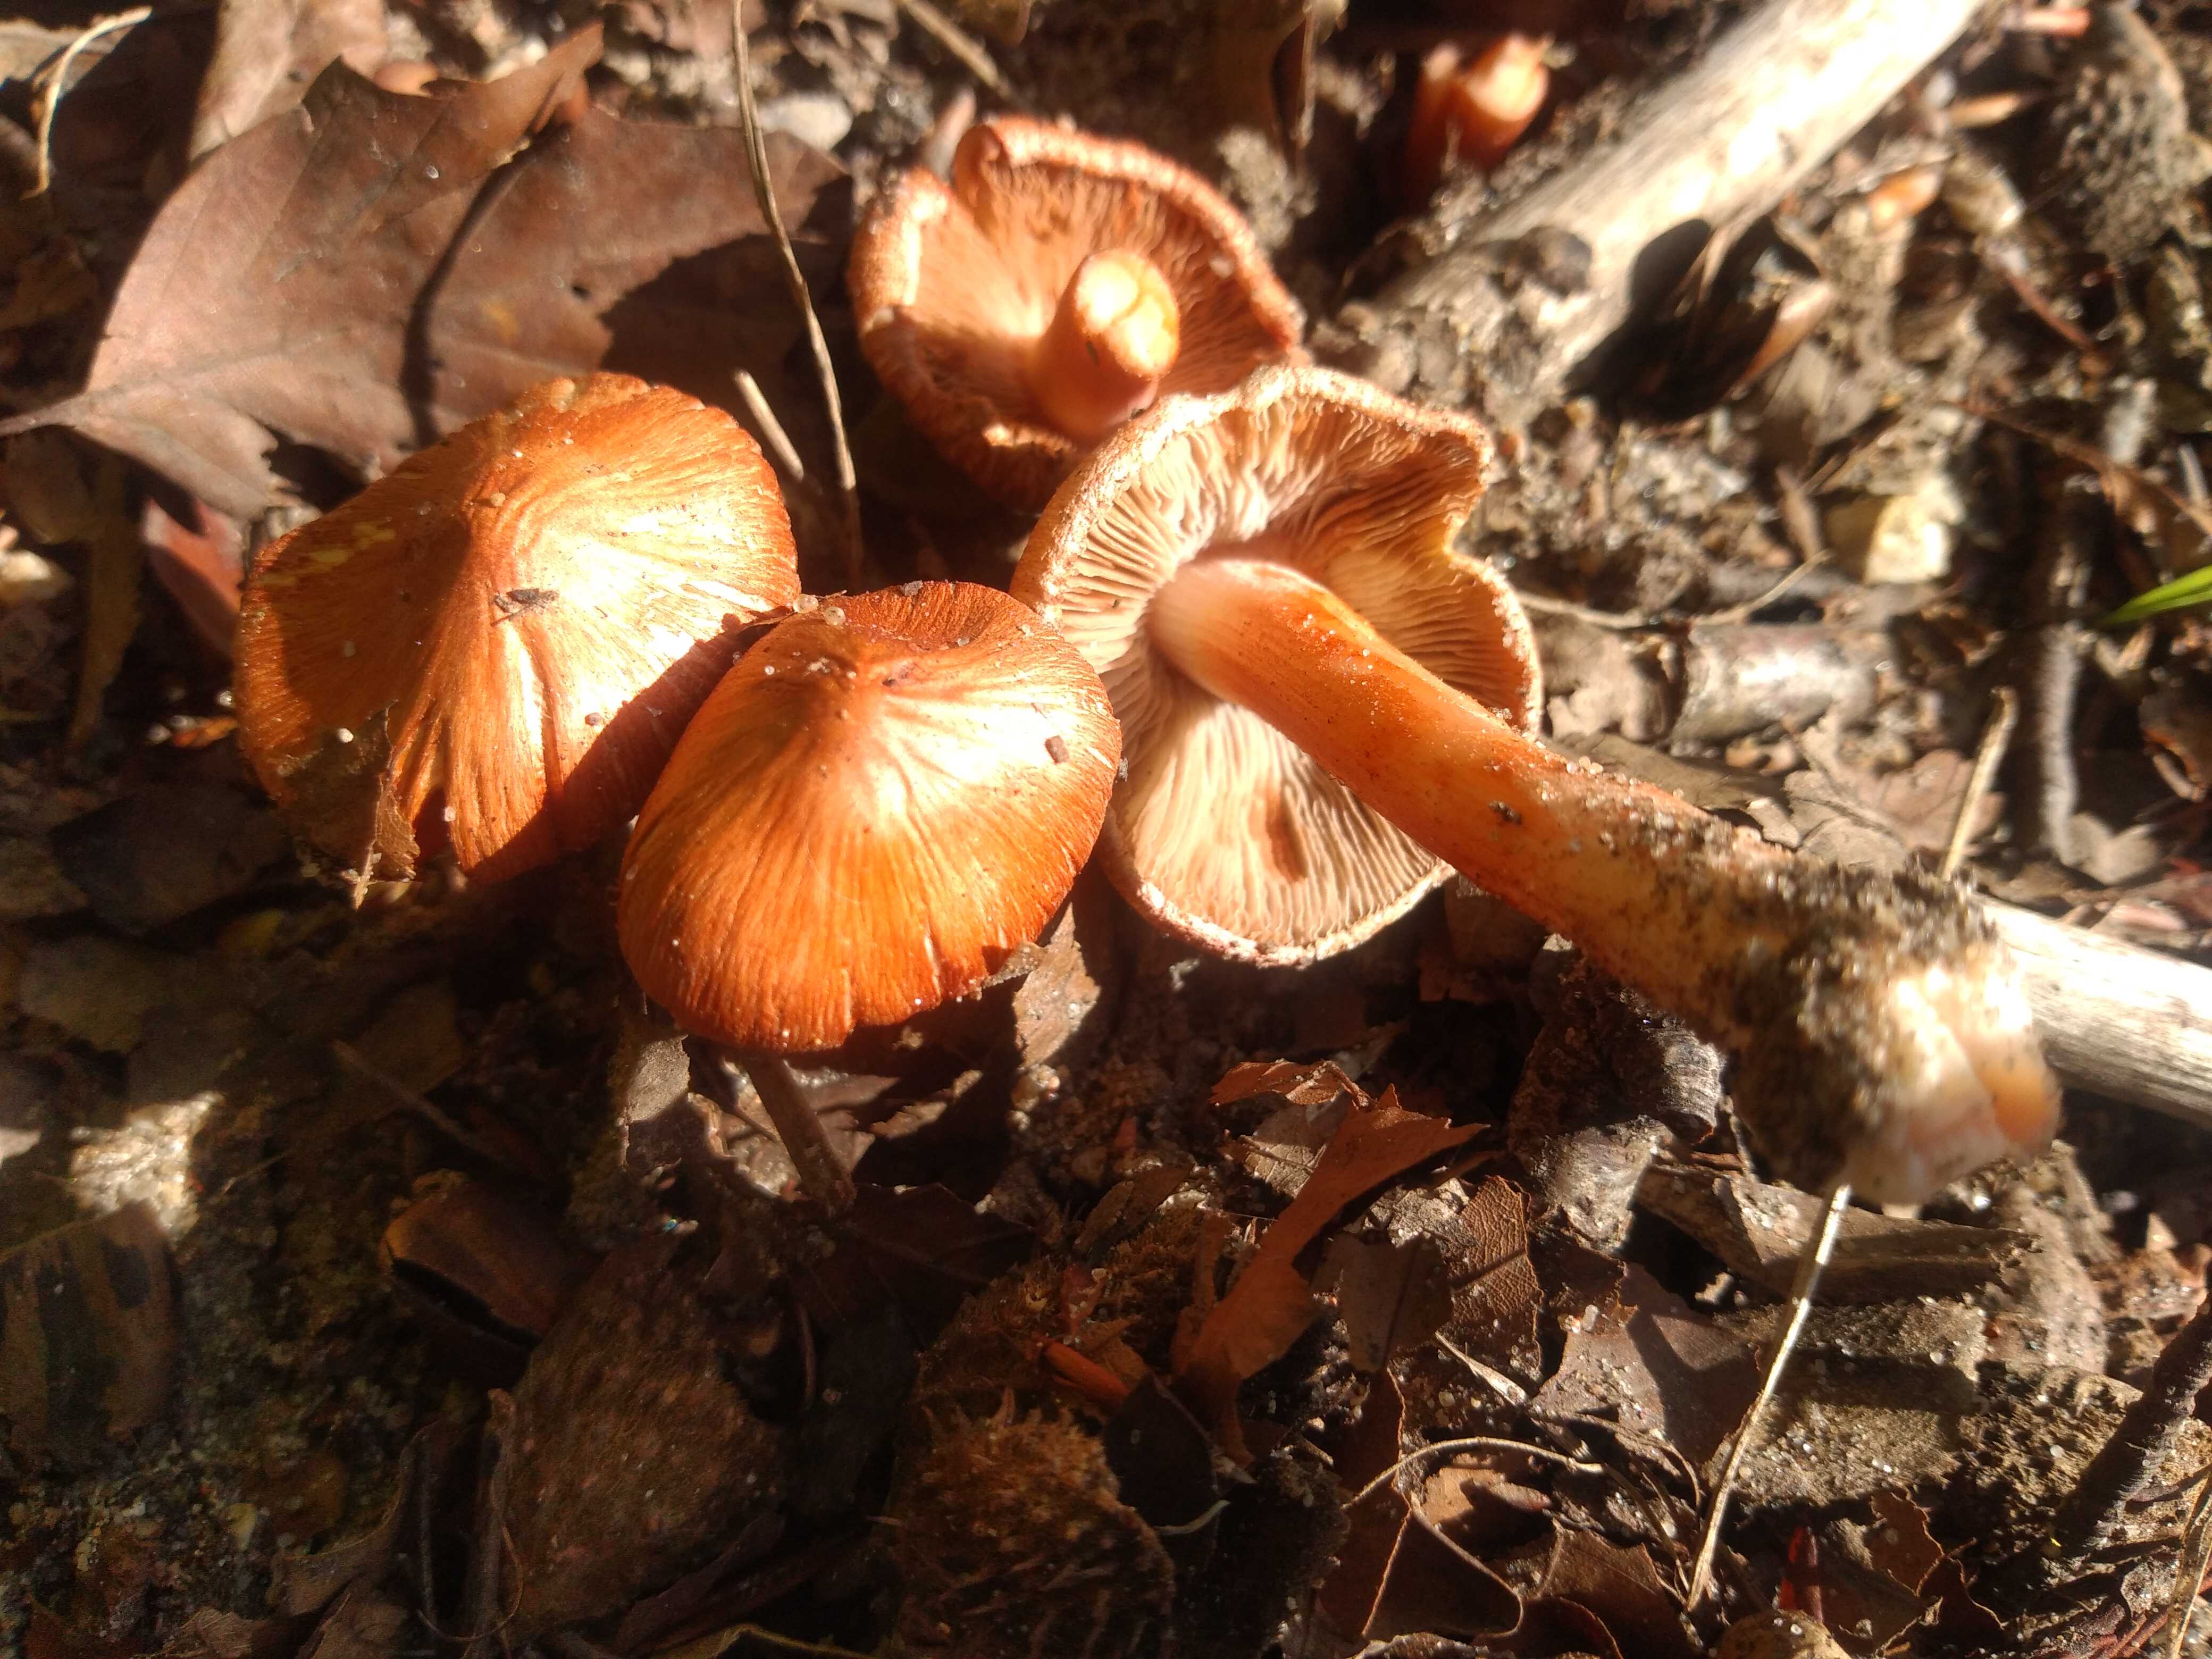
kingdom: Fungi
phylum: Basidiomycota
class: Agaricomycetes
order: Agaricales
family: Inocybaceae
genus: Inocybe
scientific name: Inocybe godeyi
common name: orangerødmende trævlhat
